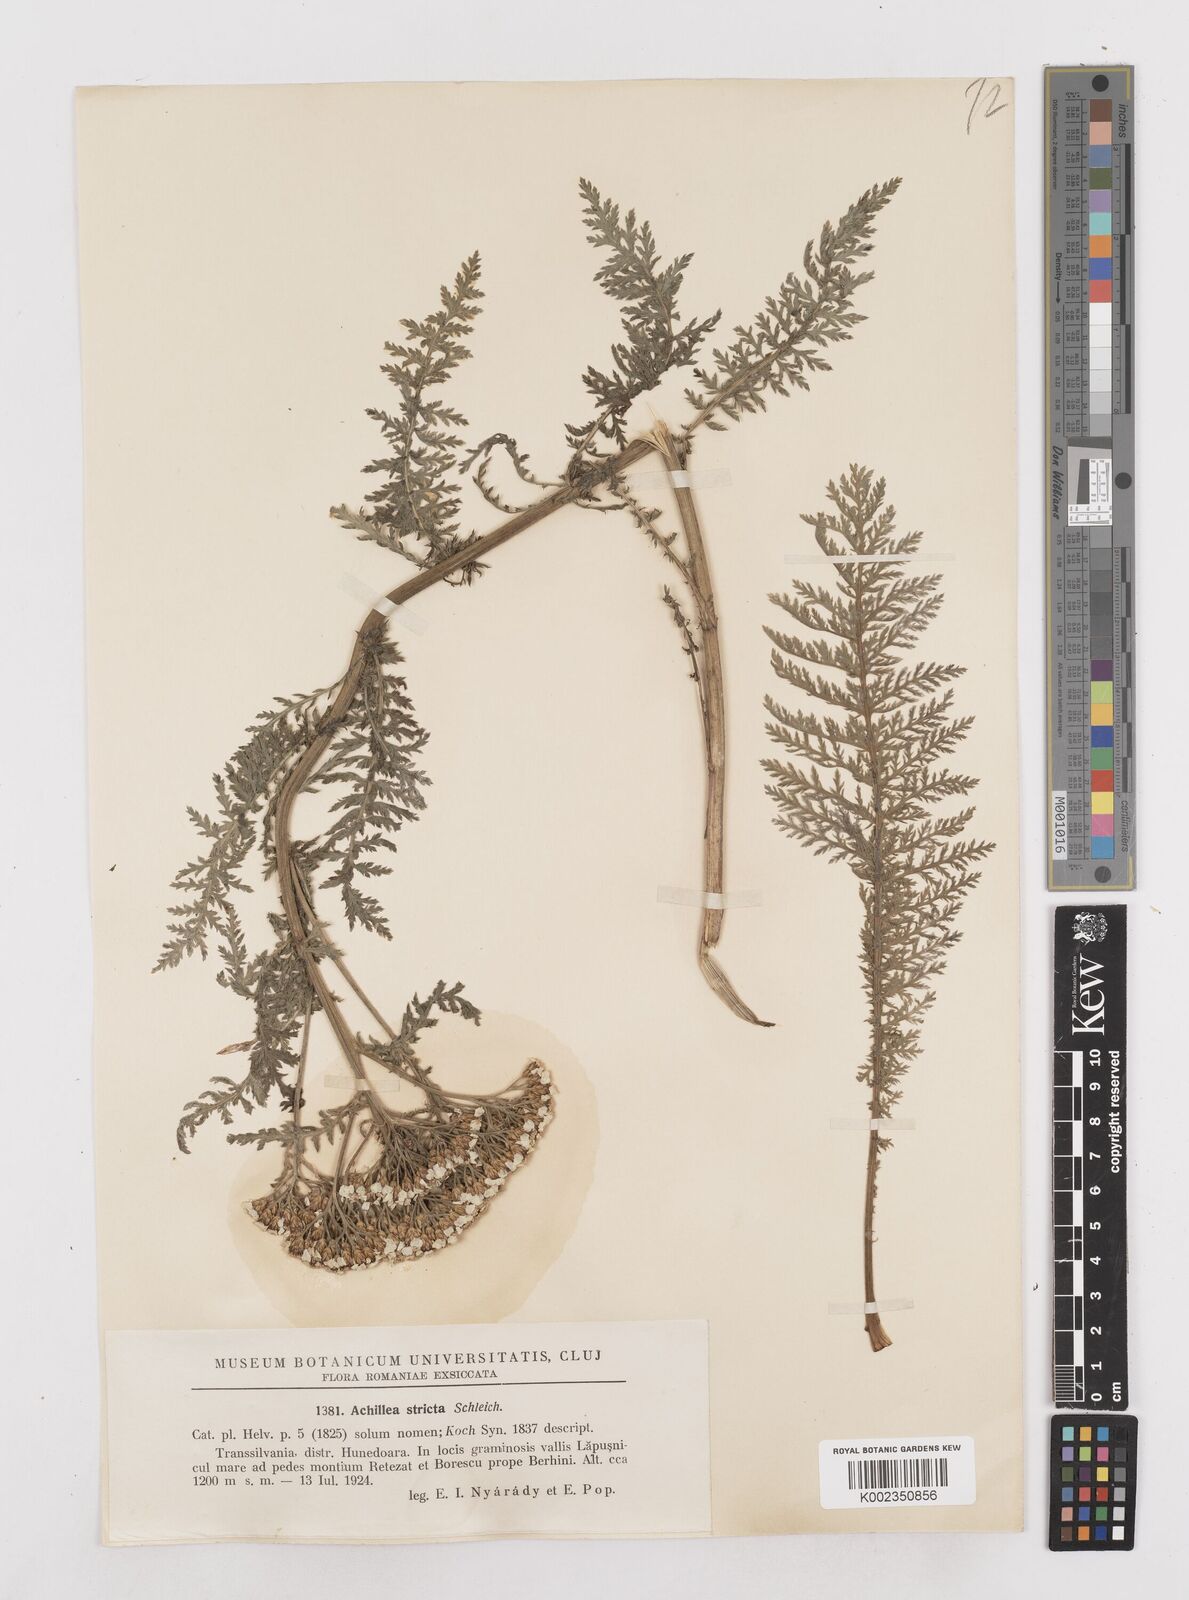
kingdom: Plantae
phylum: Tracheophyta
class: Magnoliopsida
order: Asterales
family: Asteraceae
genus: Achillea
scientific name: Achillea distans
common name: Tall yarrow
